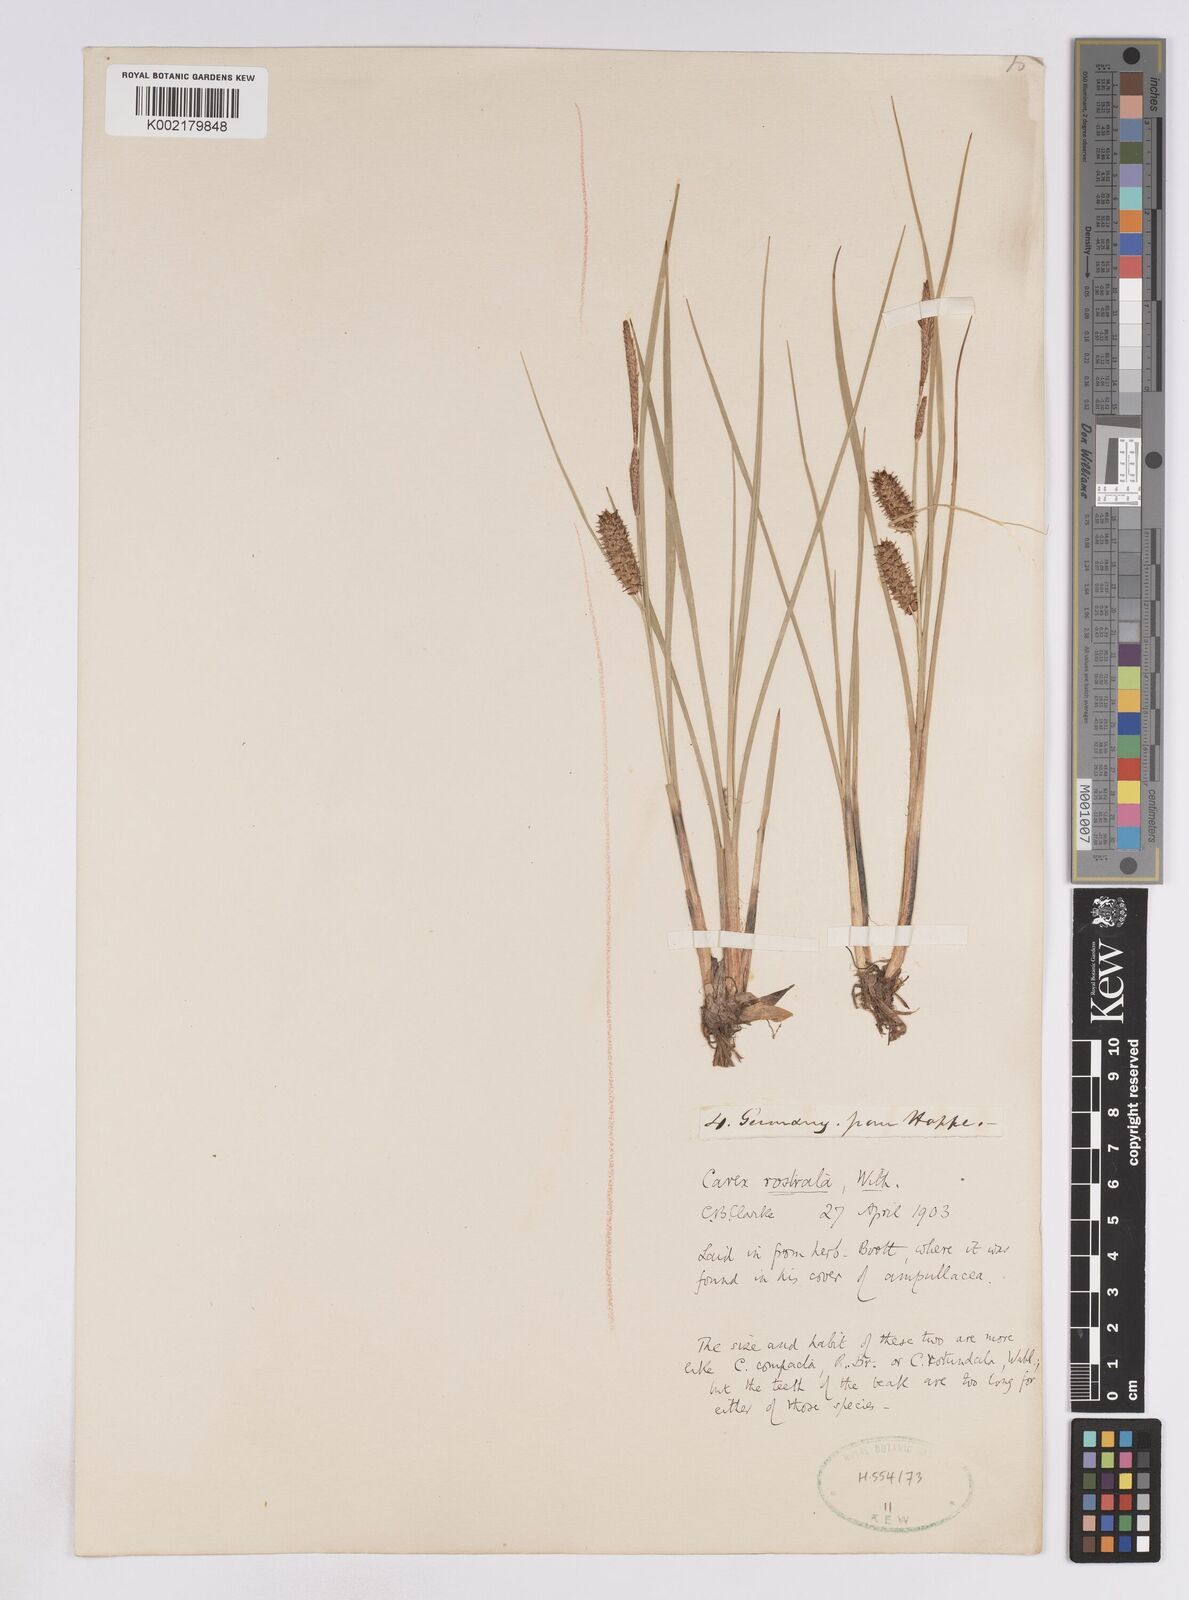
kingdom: Plantae
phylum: Tracheophyta
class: Liliopsida
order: Poales
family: Cyperaceae
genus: Carex
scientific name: Carex rostrata
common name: Bottle sedge
